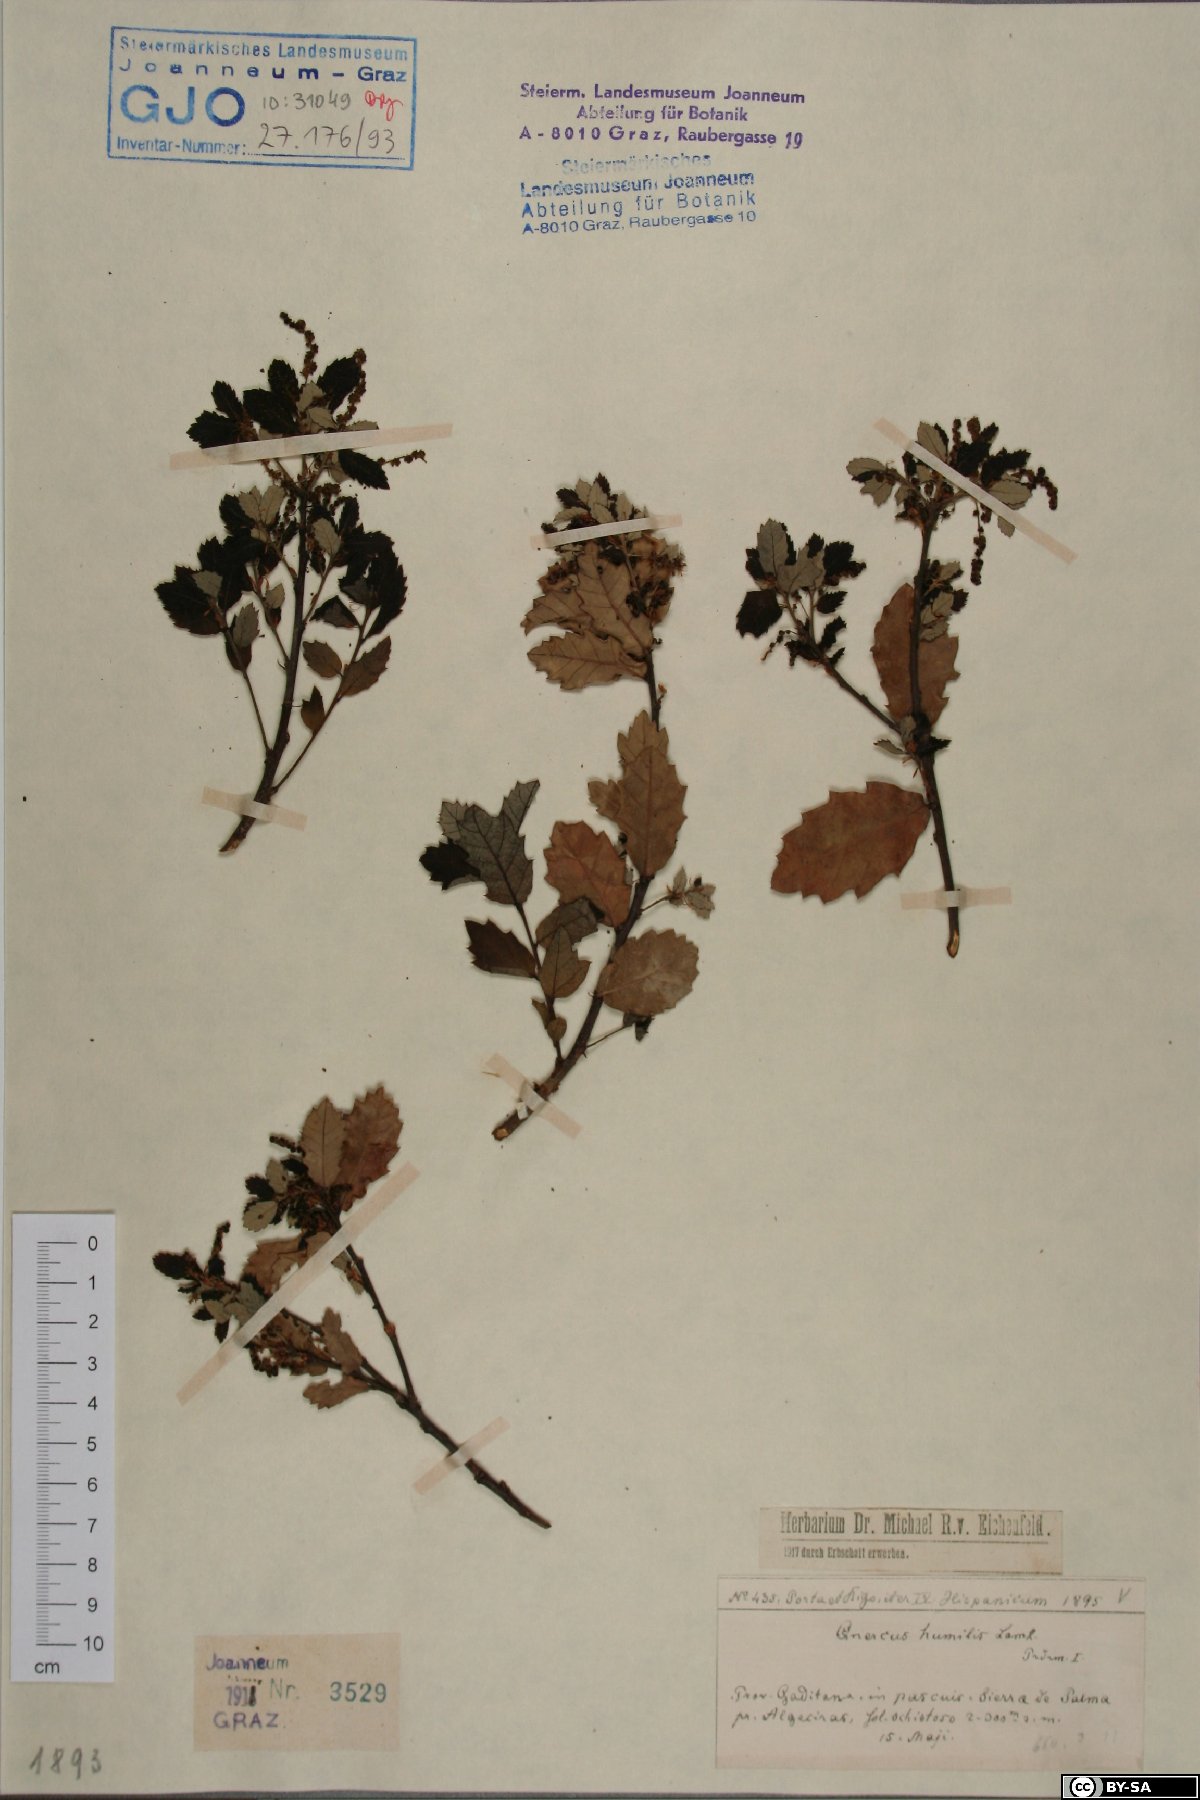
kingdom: Plantae
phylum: Tracheophyta
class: Magnoliopsida
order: Fagales
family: Fagaceae
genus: Quercus
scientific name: Quercus pubescens
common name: Downy oak
